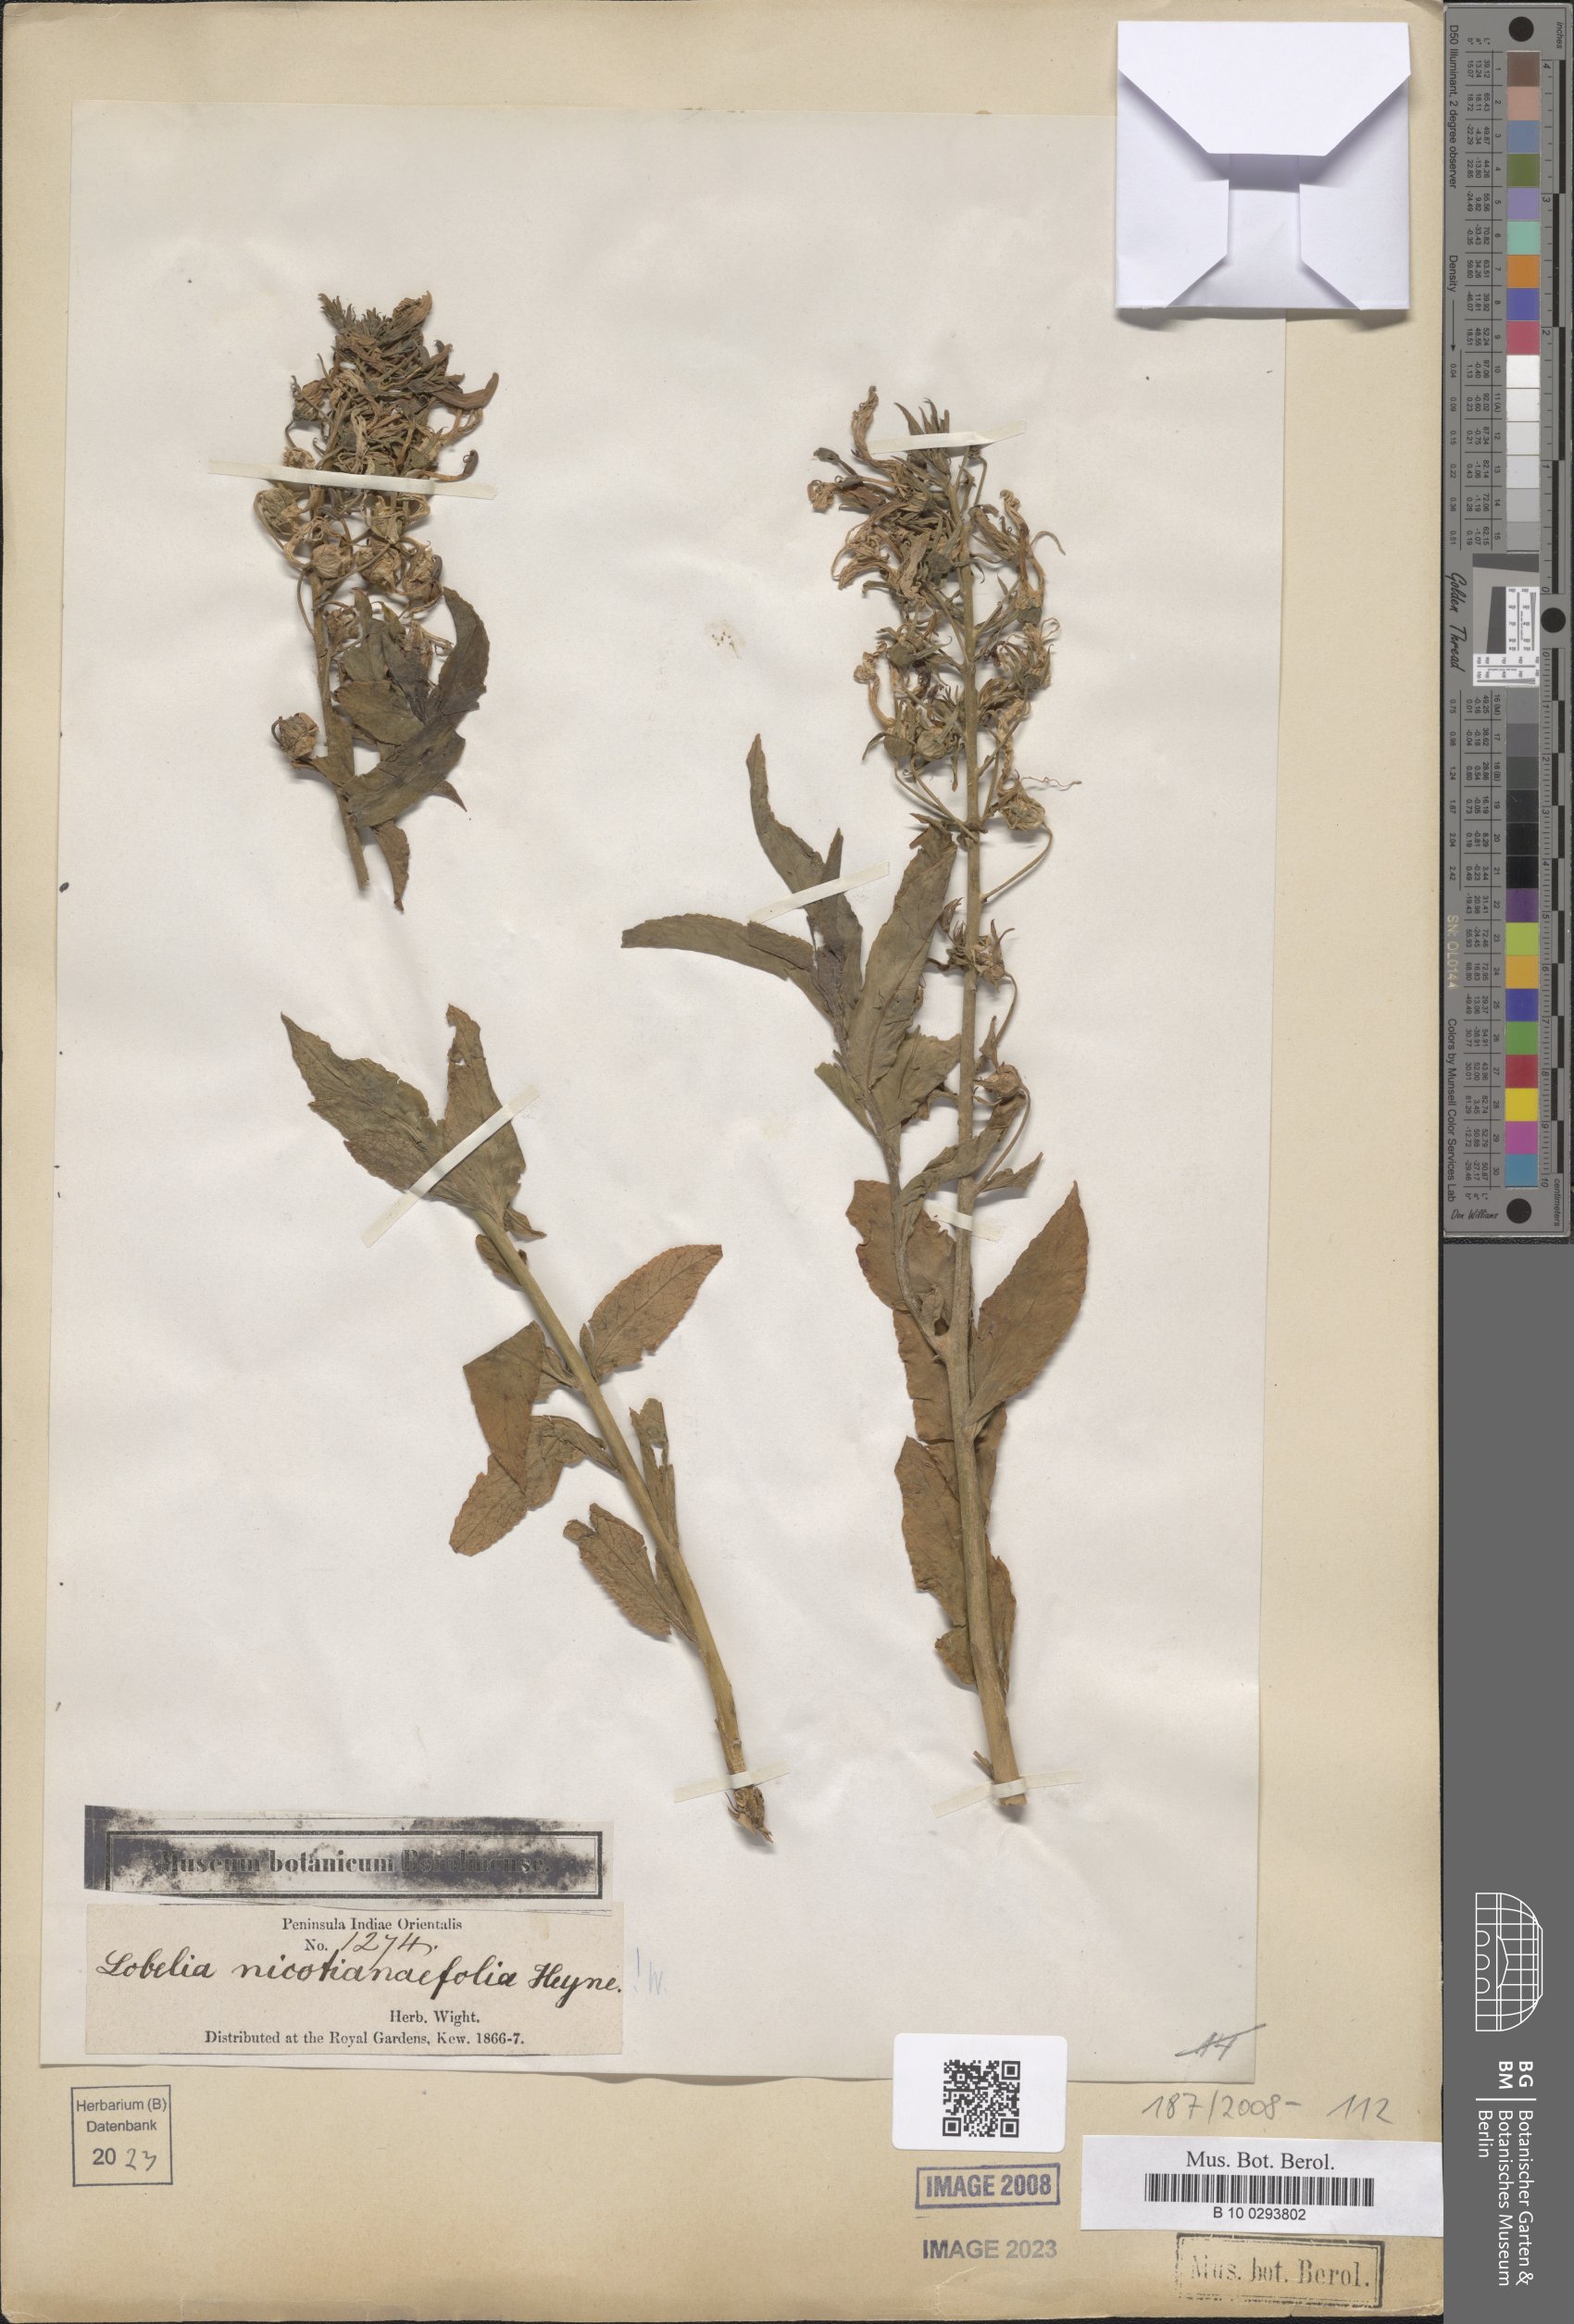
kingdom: Plantae
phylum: Tracheophyta
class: Magnoliopsida
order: Asterales
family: Campanulaceae
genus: Lobelia
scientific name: Lobelia nicotianifolia
